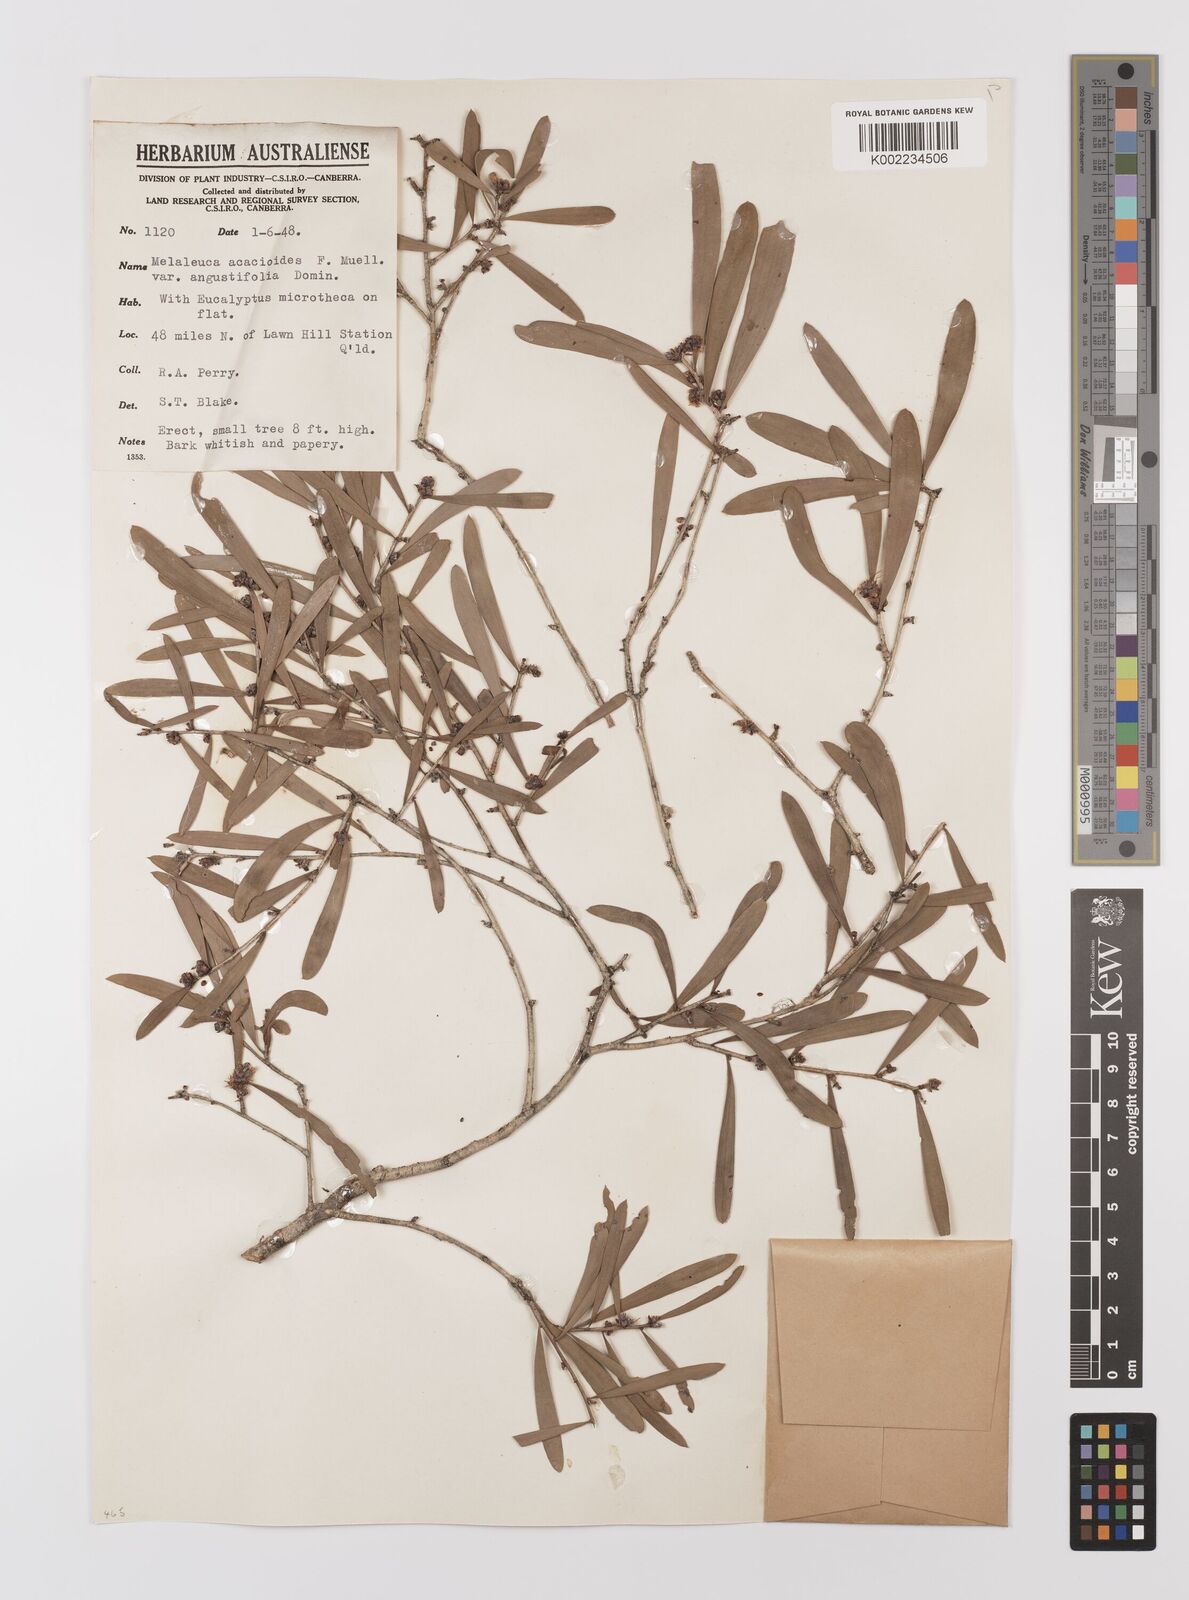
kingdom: Plantae
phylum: Tracheophyta
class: Magnoliopsida
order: Myrtales
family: Myrtaceae
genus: Melaleuca
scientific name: Melaleuca citrolens
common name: Lemon-scented paperbark
